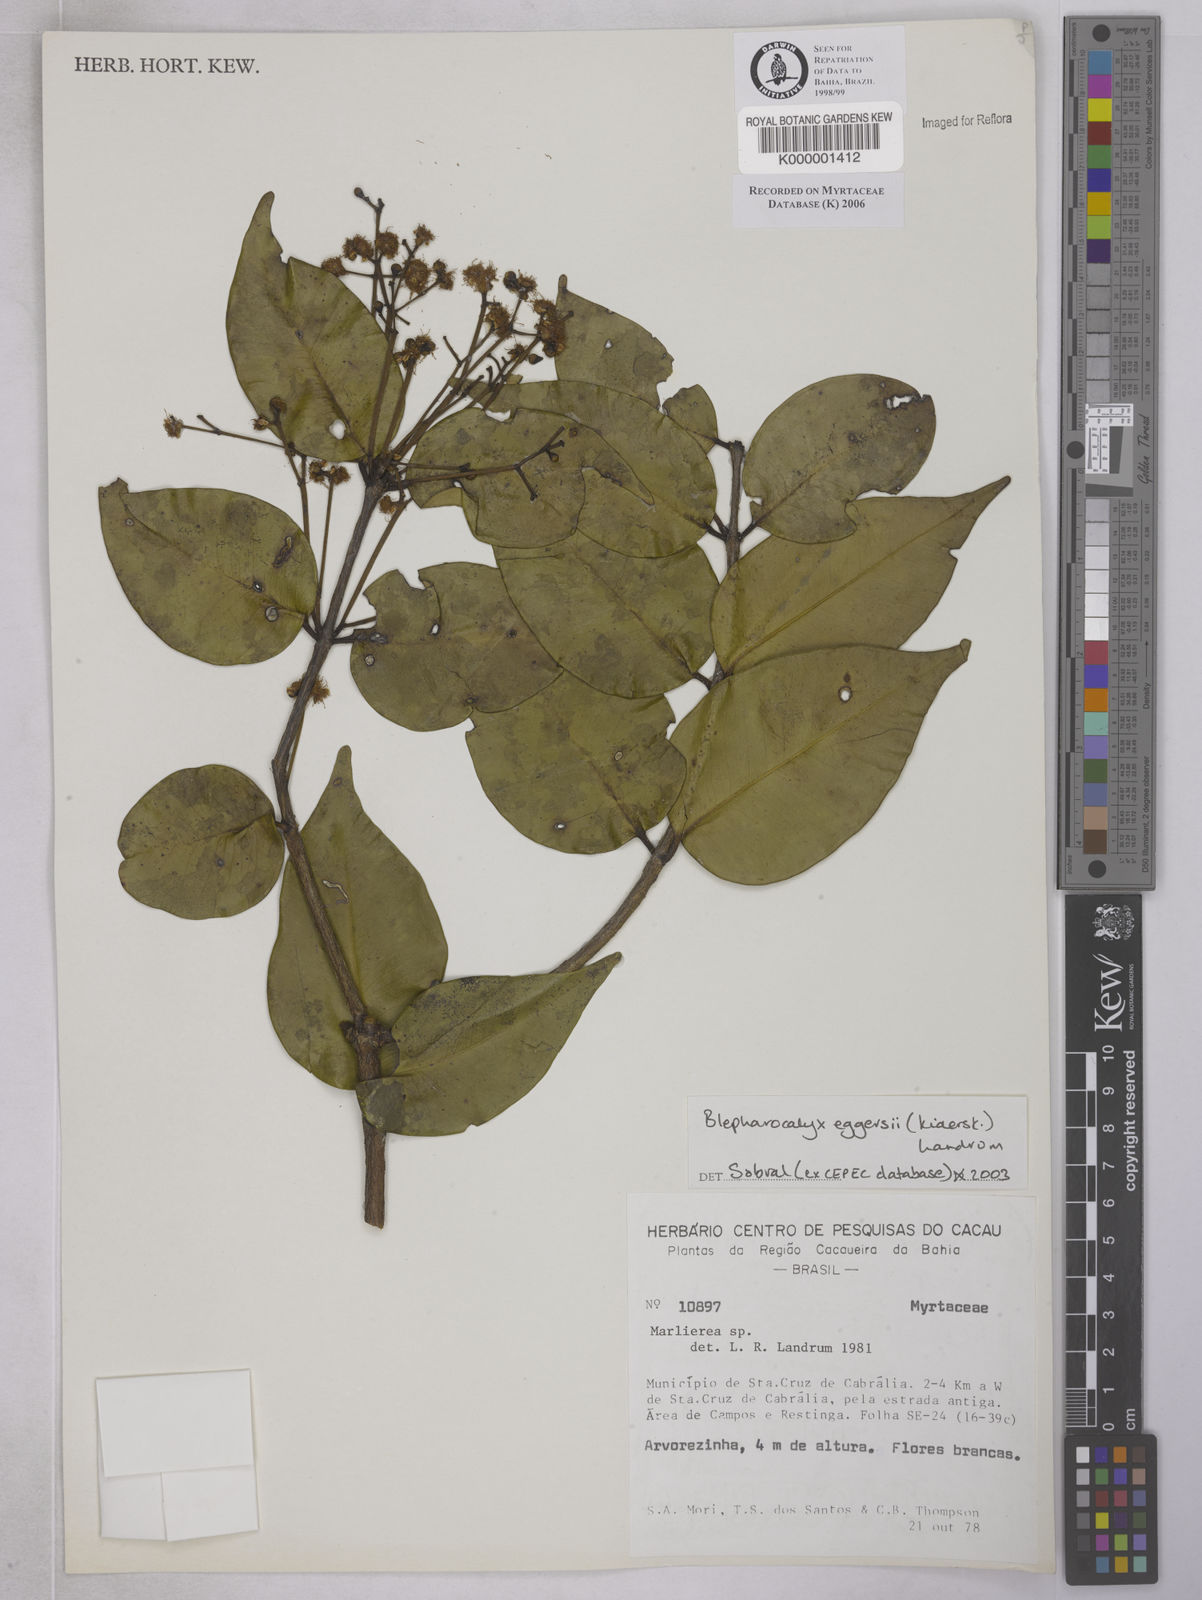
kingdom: Plantae
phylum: Tracheophyta
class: Magnoliopsida
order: Myrtales
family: Myrtaceae
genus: Marlierea
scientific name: Marlierea
